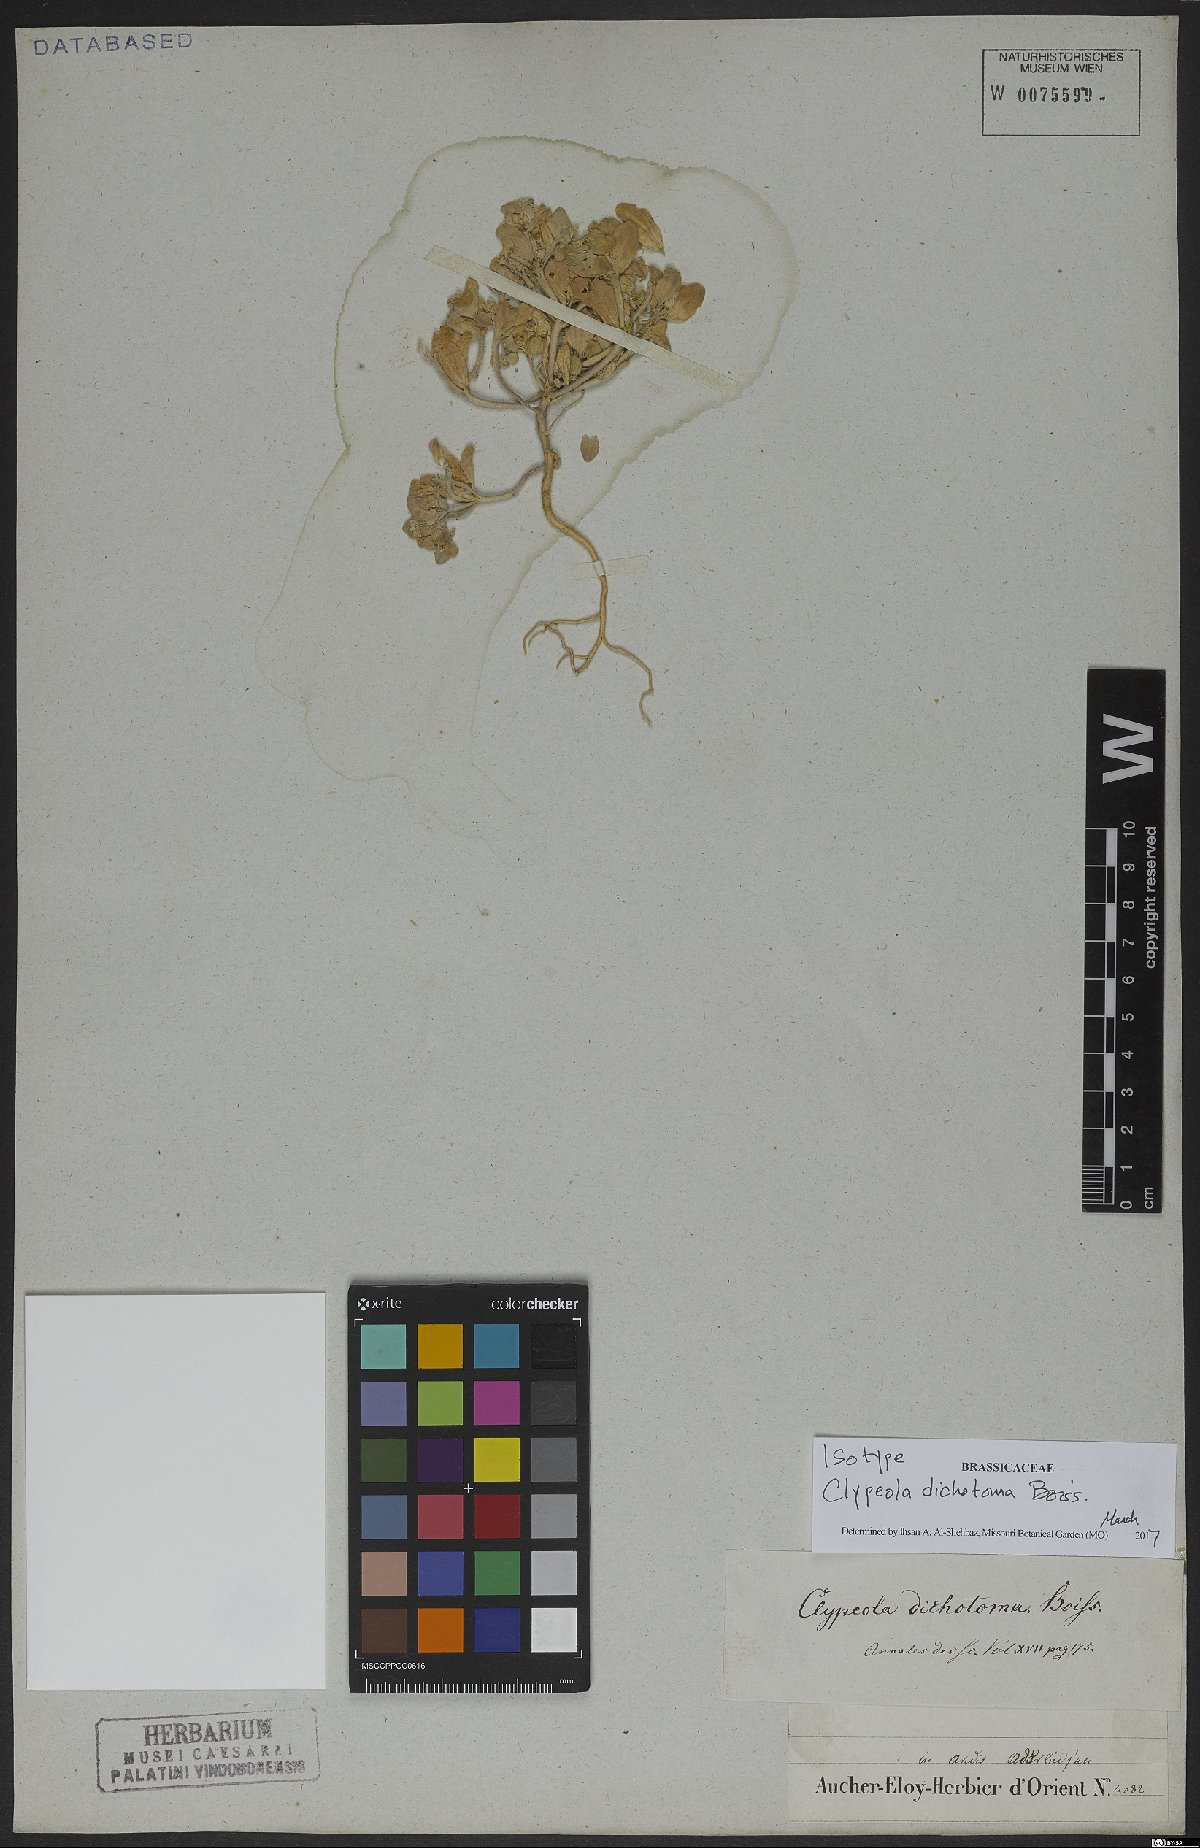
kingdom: Plantae
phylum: Tracheophyta
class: Magnoliopsida
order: Brassicales
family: Brassicaceae
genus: Clypeola
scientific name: Clypeola dichotoma
